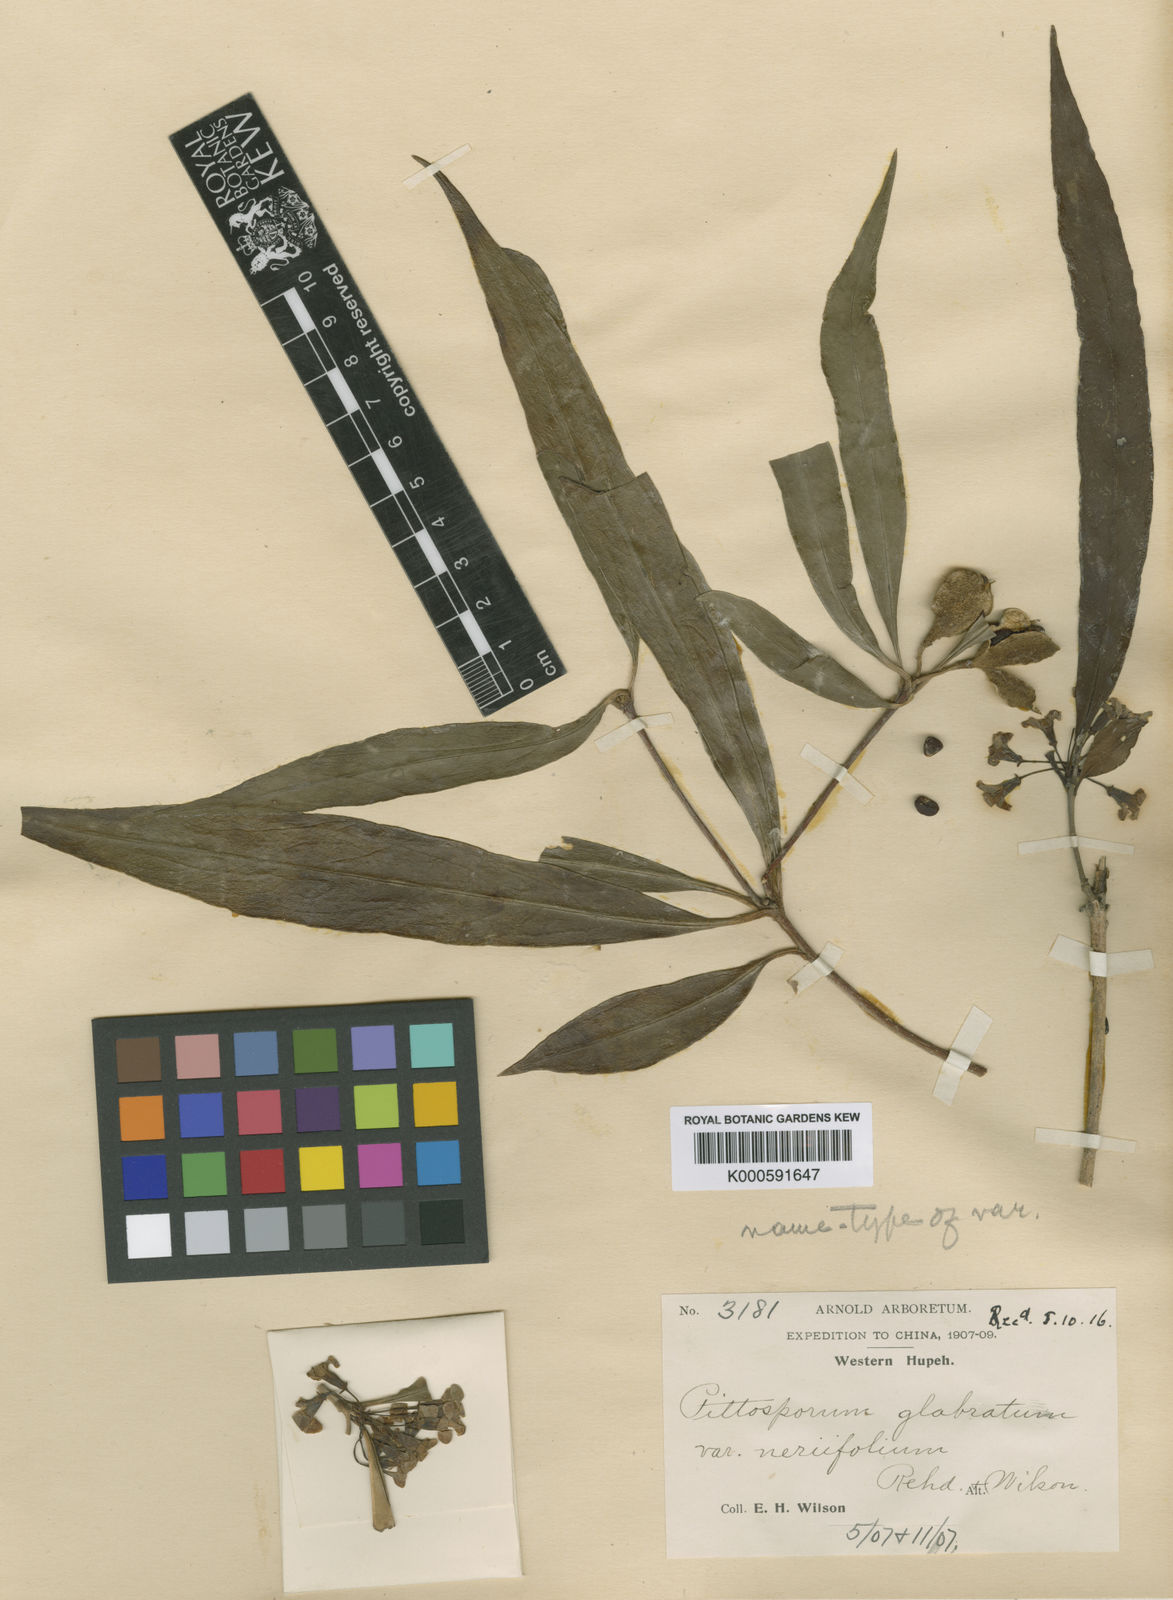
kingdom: Plantae
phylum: Tracheophyta
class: Magnoliopsida
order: Apiales
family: Pittosporaceae
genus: Pittosporum
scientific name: Pittosporum glabratum
